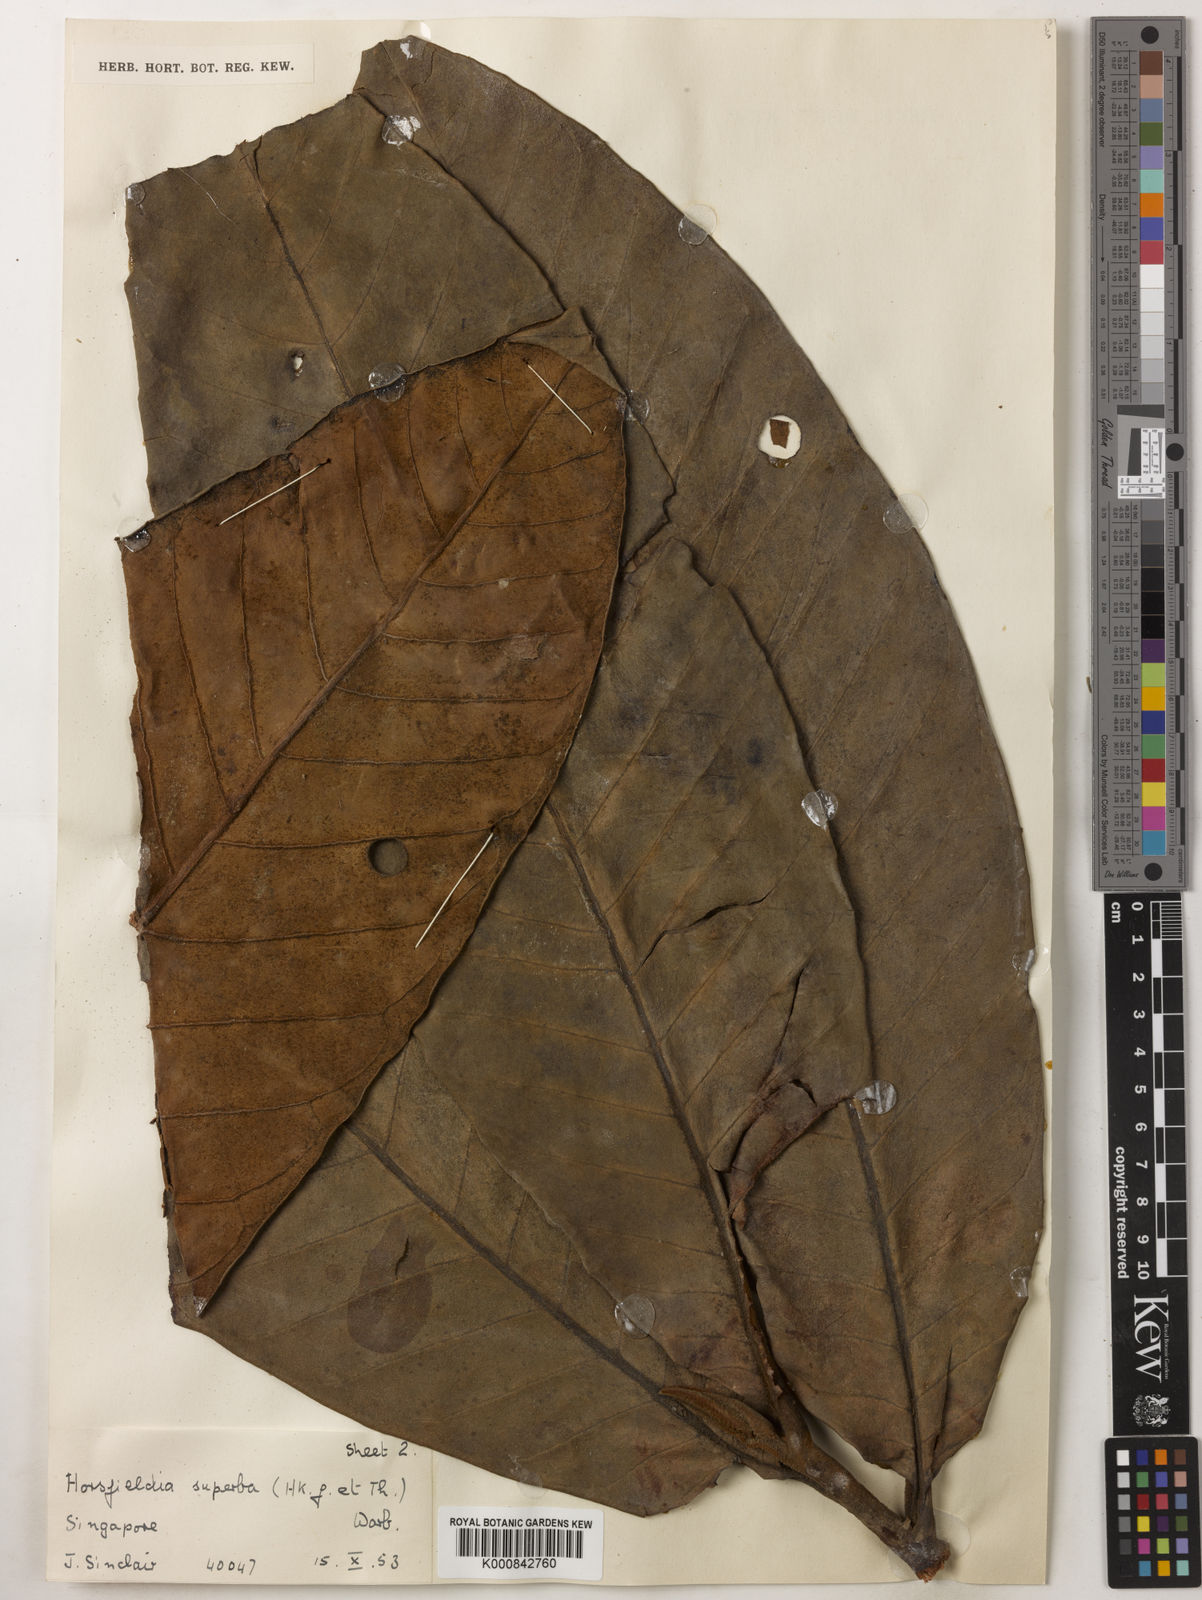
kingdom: Plantae
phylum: Tracheophyta
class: Magnoliopsida
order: Magnoliales
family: Myristicaceae
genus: Horsfieldia
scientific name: Horsfieldia superba
